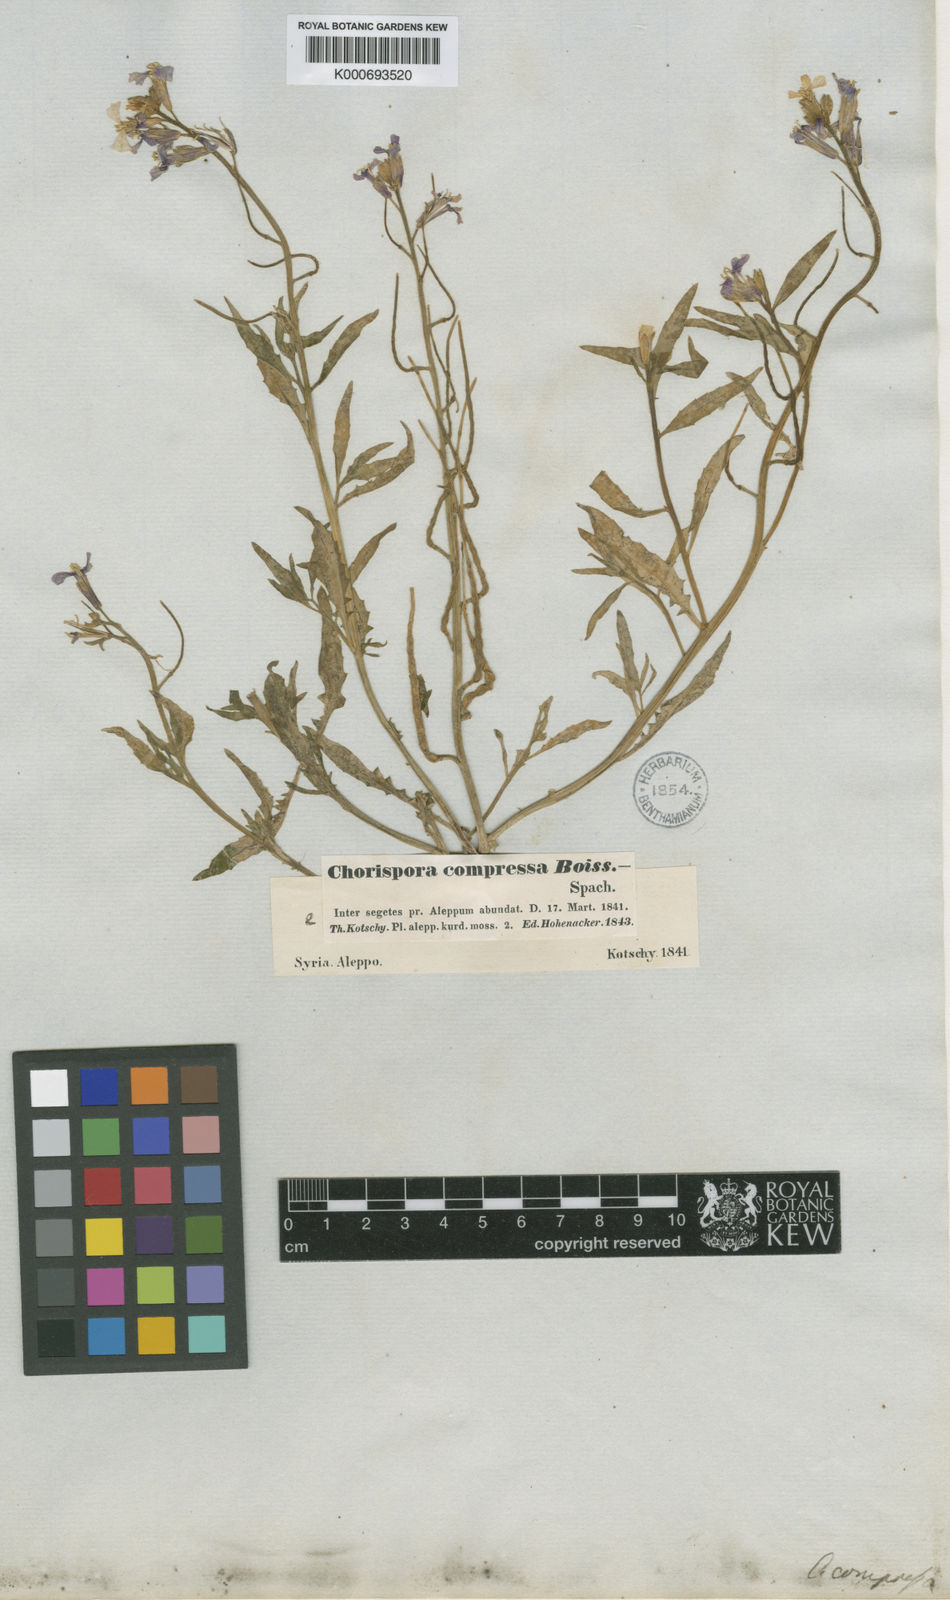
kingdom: Plantae
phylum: Tracheophyta
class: Magnoliopsida
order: Brassicales
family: Brassicaceae
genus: Chorispora
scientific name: Chorispora purpurascens
